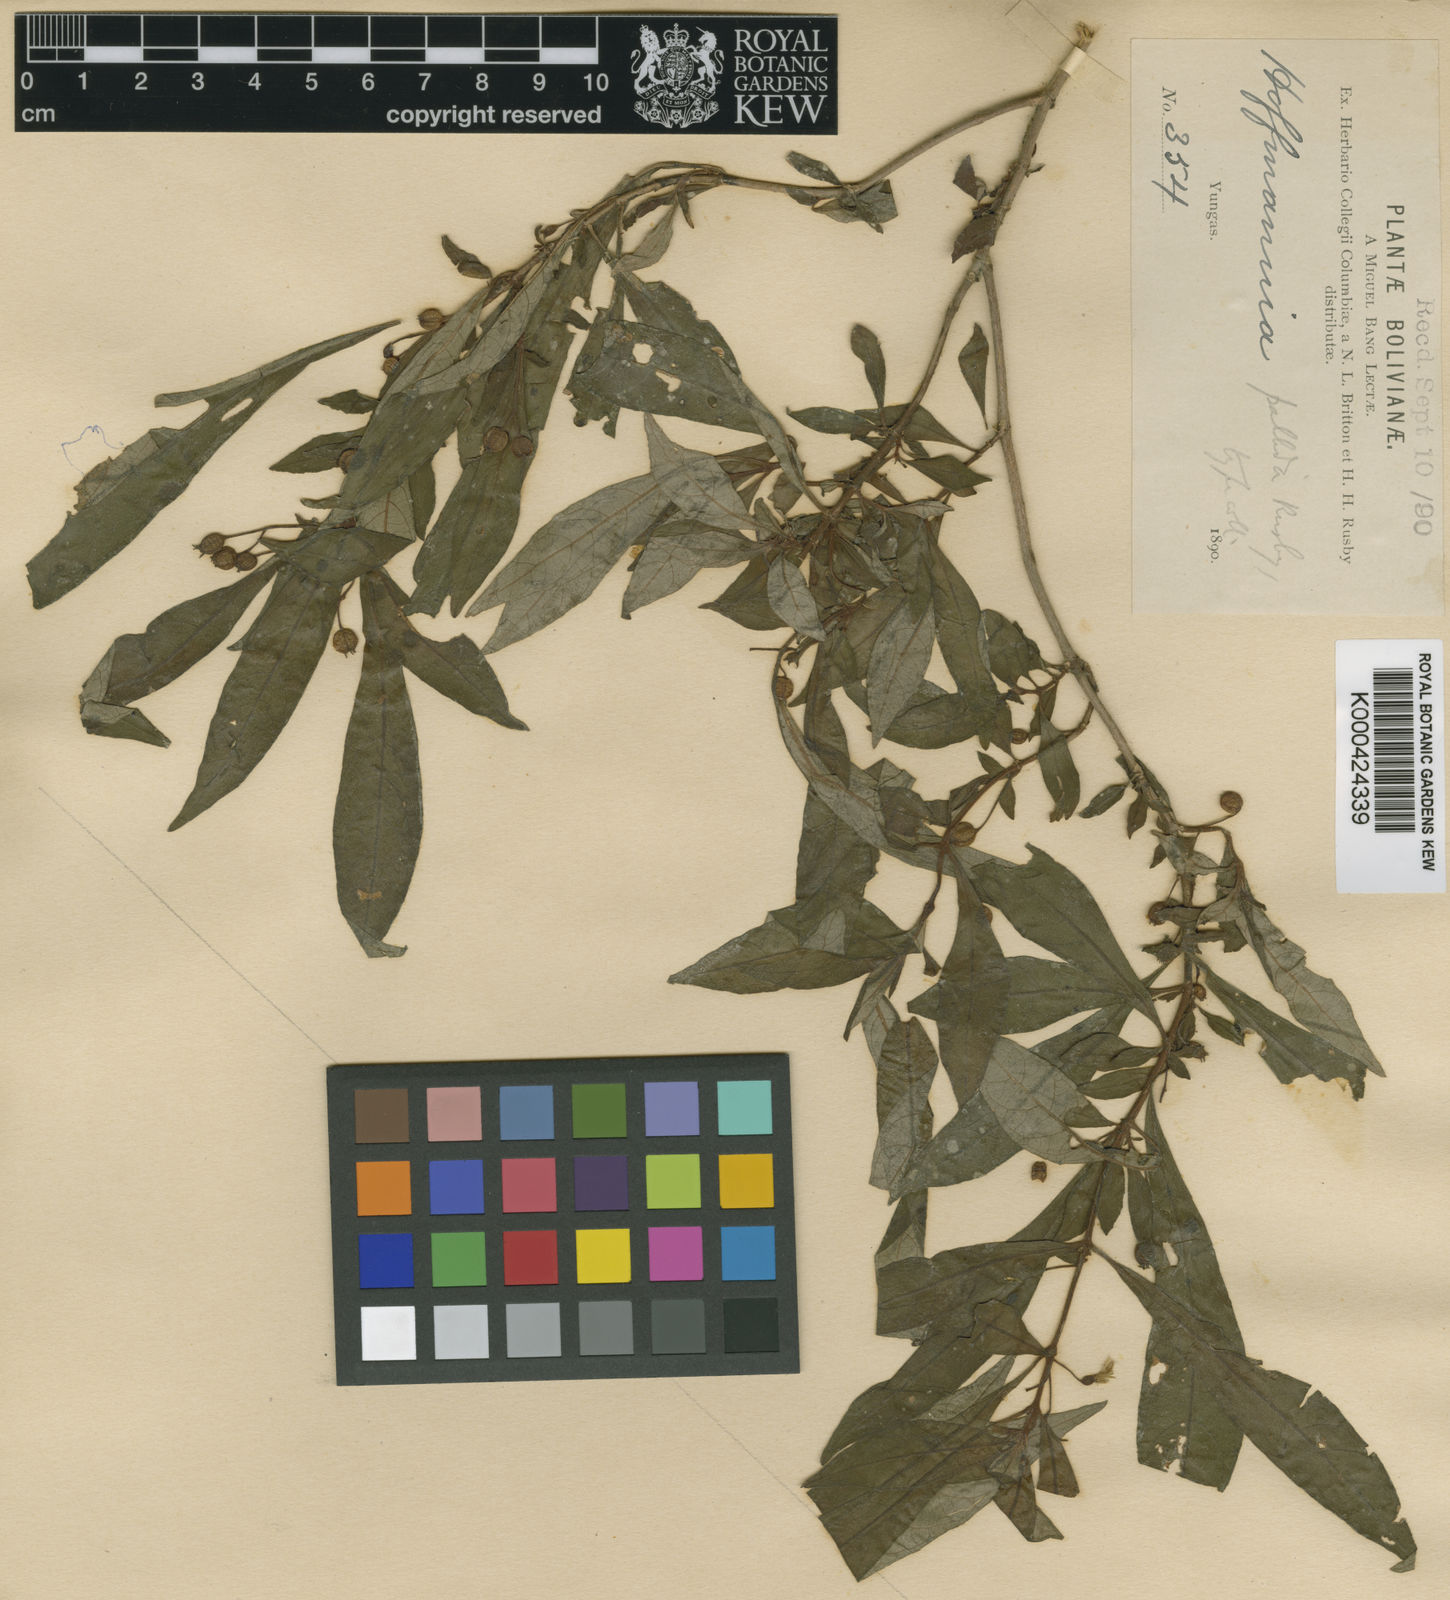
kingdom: Plantae
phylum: Tracheophyta
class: Magnoliopsida
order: Gentianales
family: Rubiaceae
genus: Hoffmannia
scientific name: Hoffmannia pallida
